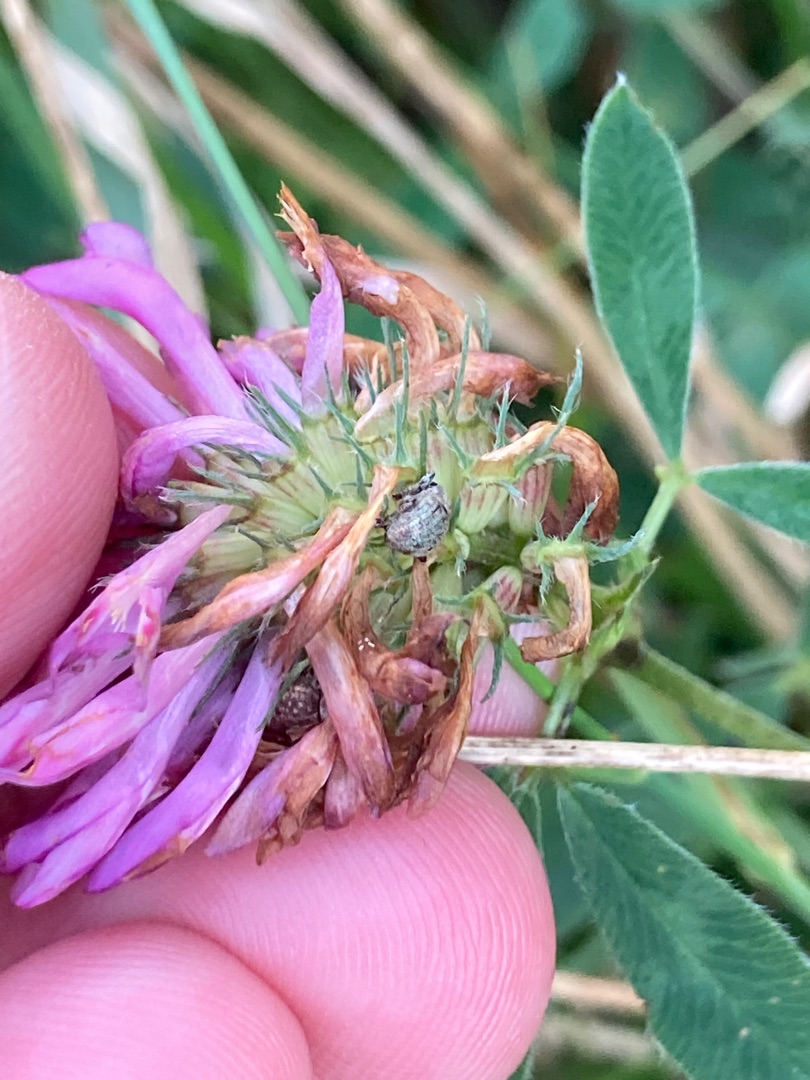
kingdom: Plantae
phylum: Tracheophyta
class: Magnoliopsida
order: Fabales
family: Fabaceae
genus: Trifolium
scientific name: Trifolium medium
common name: Bugtet kløver
